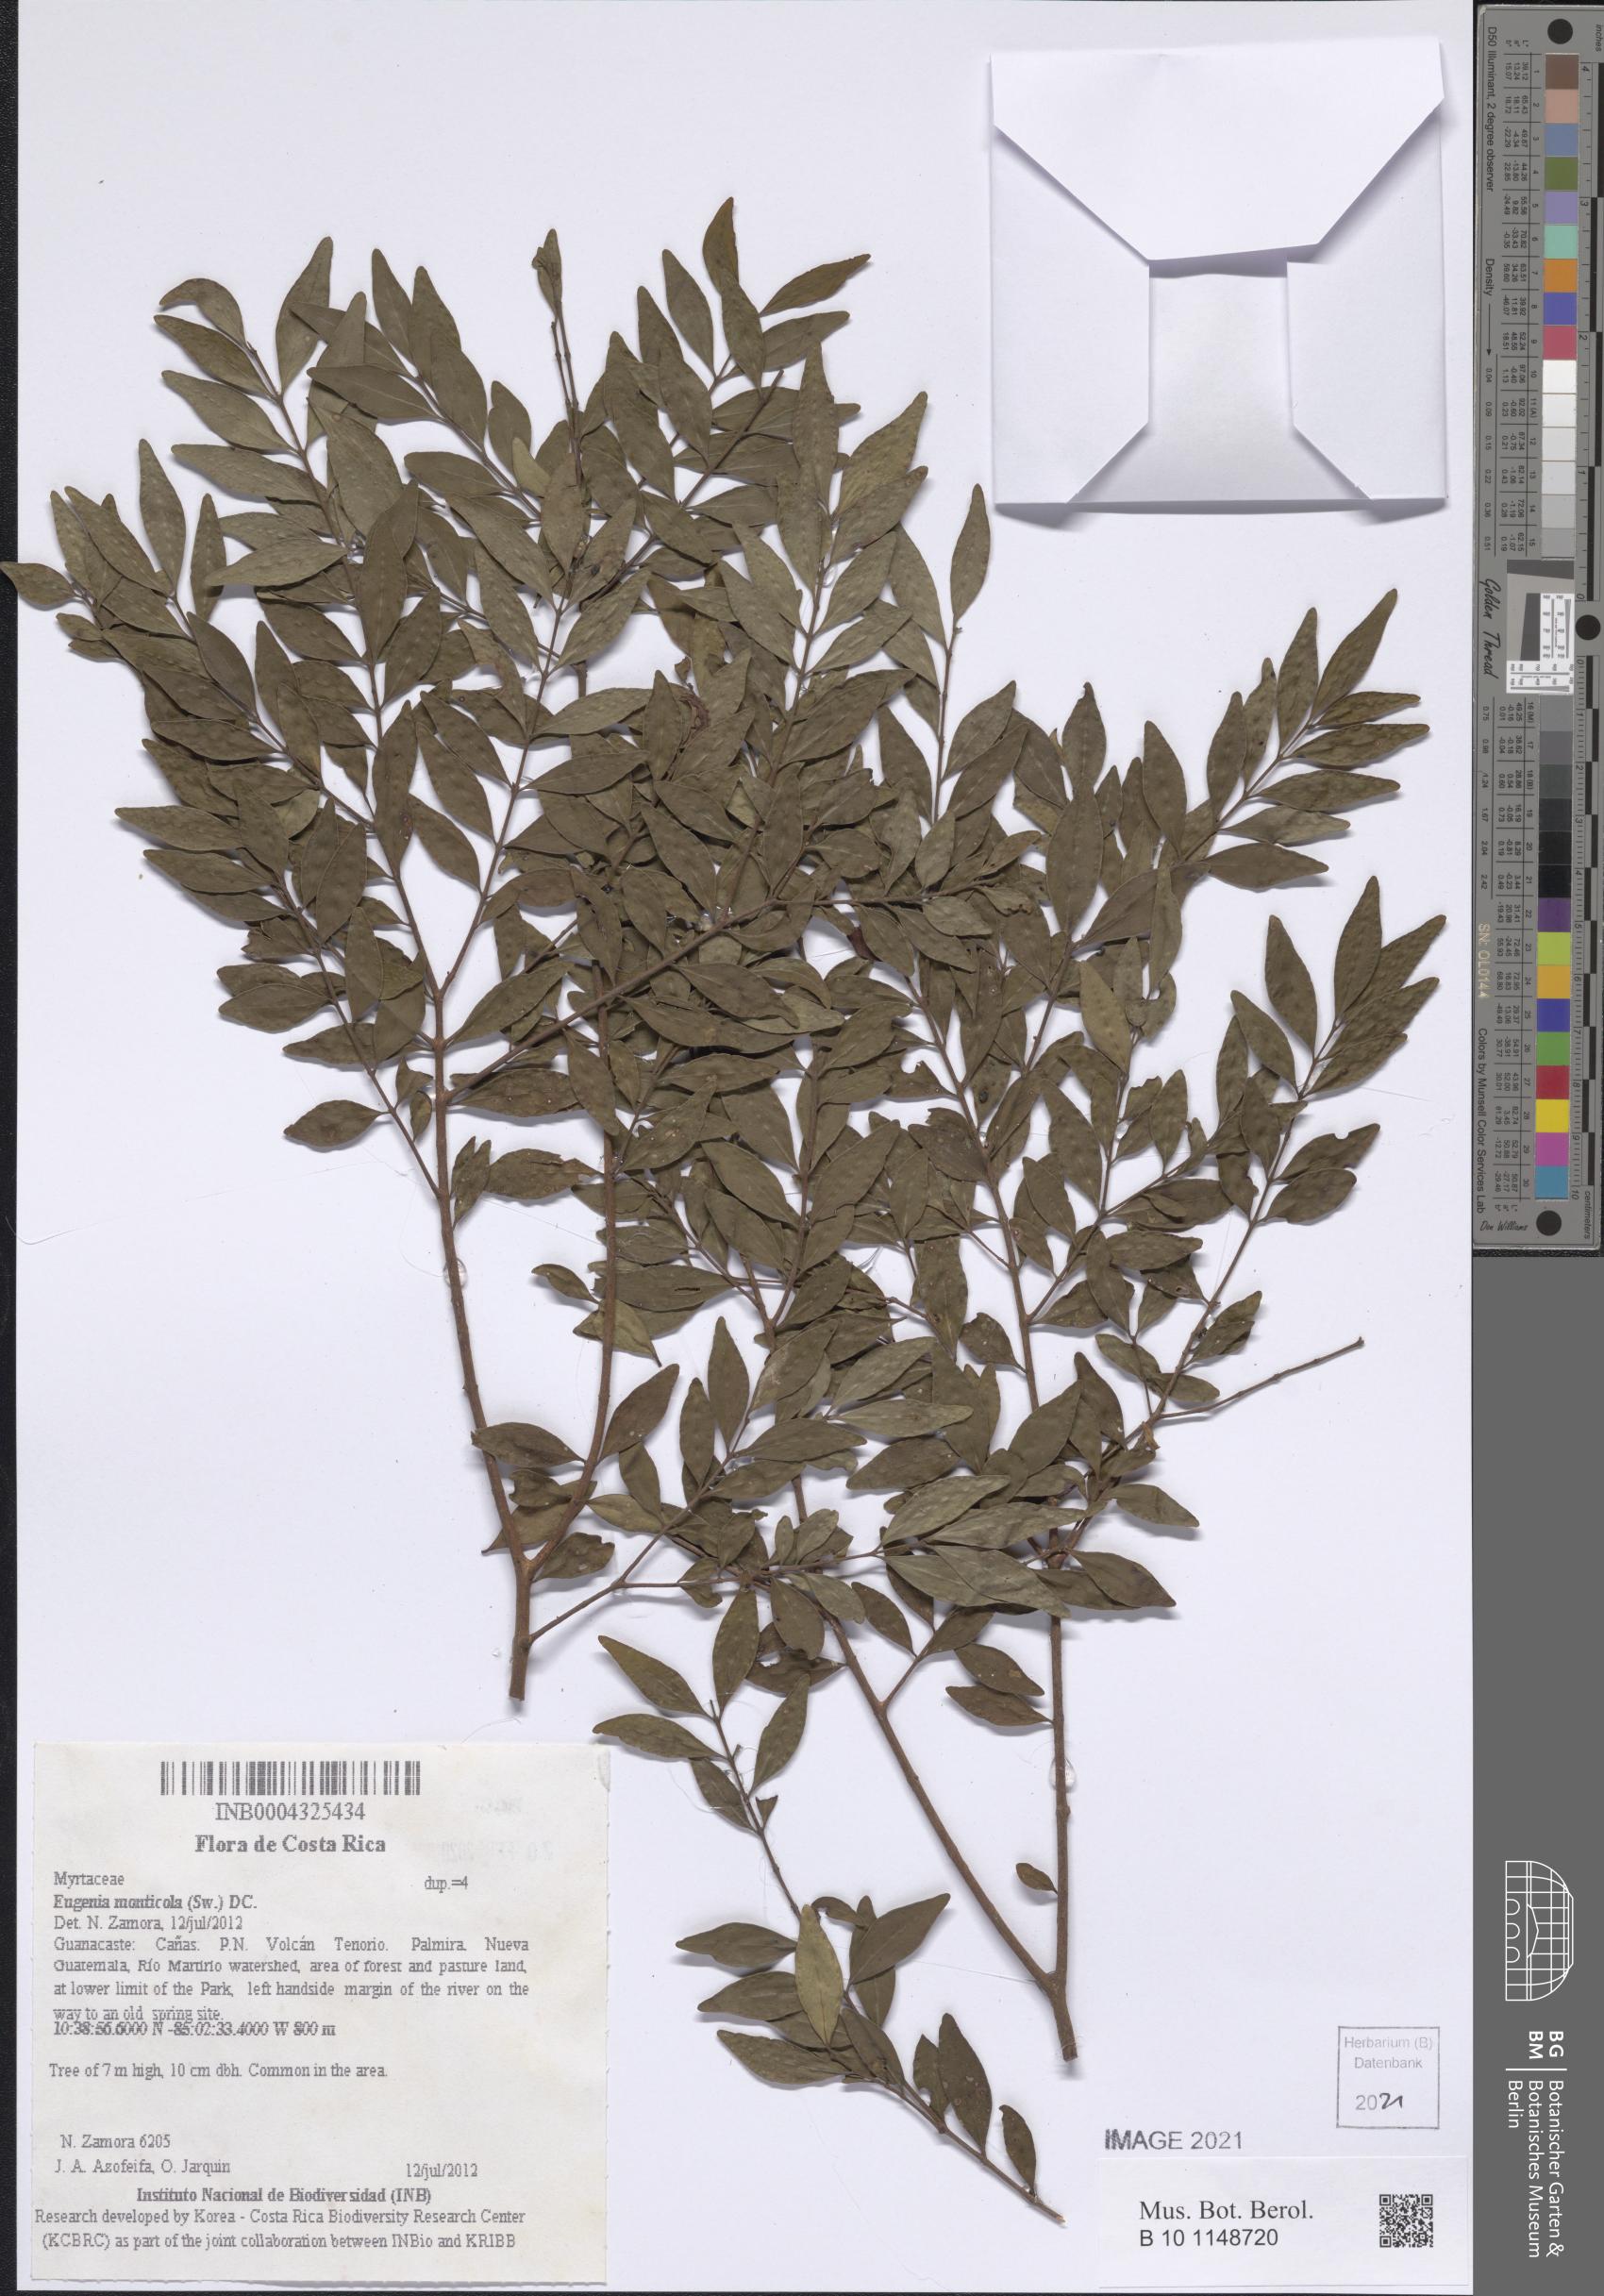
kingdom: Plantae
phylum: Tracheophyta
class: Magnoliopsida
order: Myrtales
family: Myrtaceae
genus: Eugenia
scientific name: Eugenia monticola
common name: Birds berry
